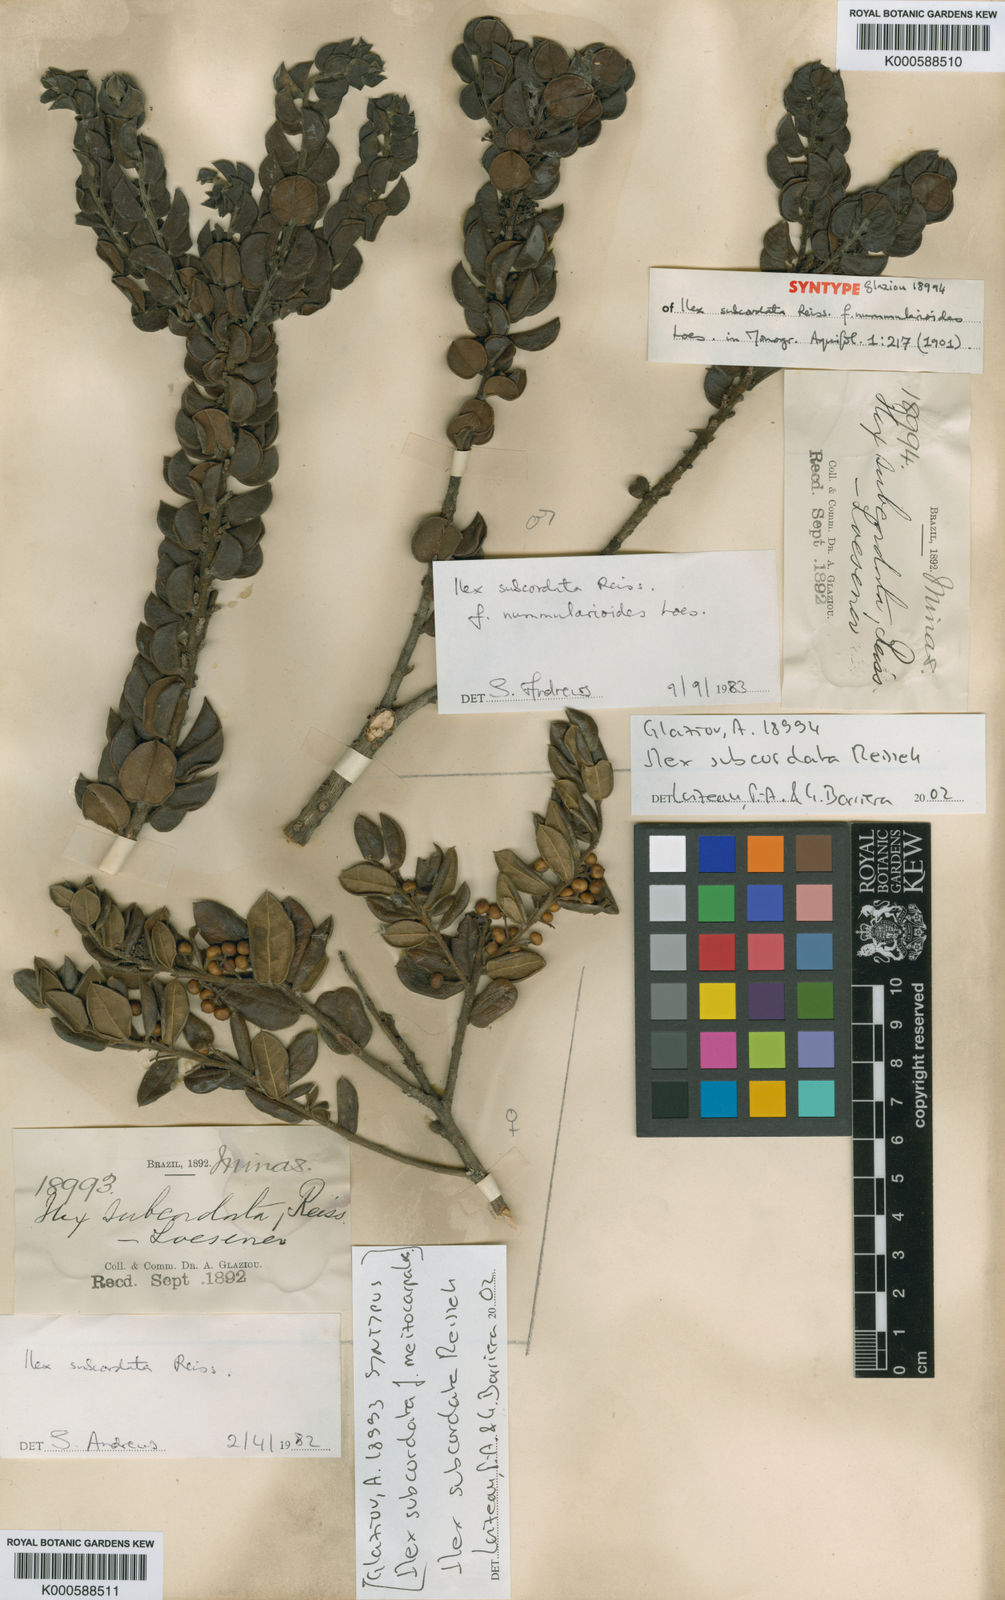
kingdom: Plantae
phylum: Tracheophyta
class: Magnoliopsida
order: Aquifoliales
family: Aquifoliaceae
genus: Ilex
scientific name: Ilex subcordata
